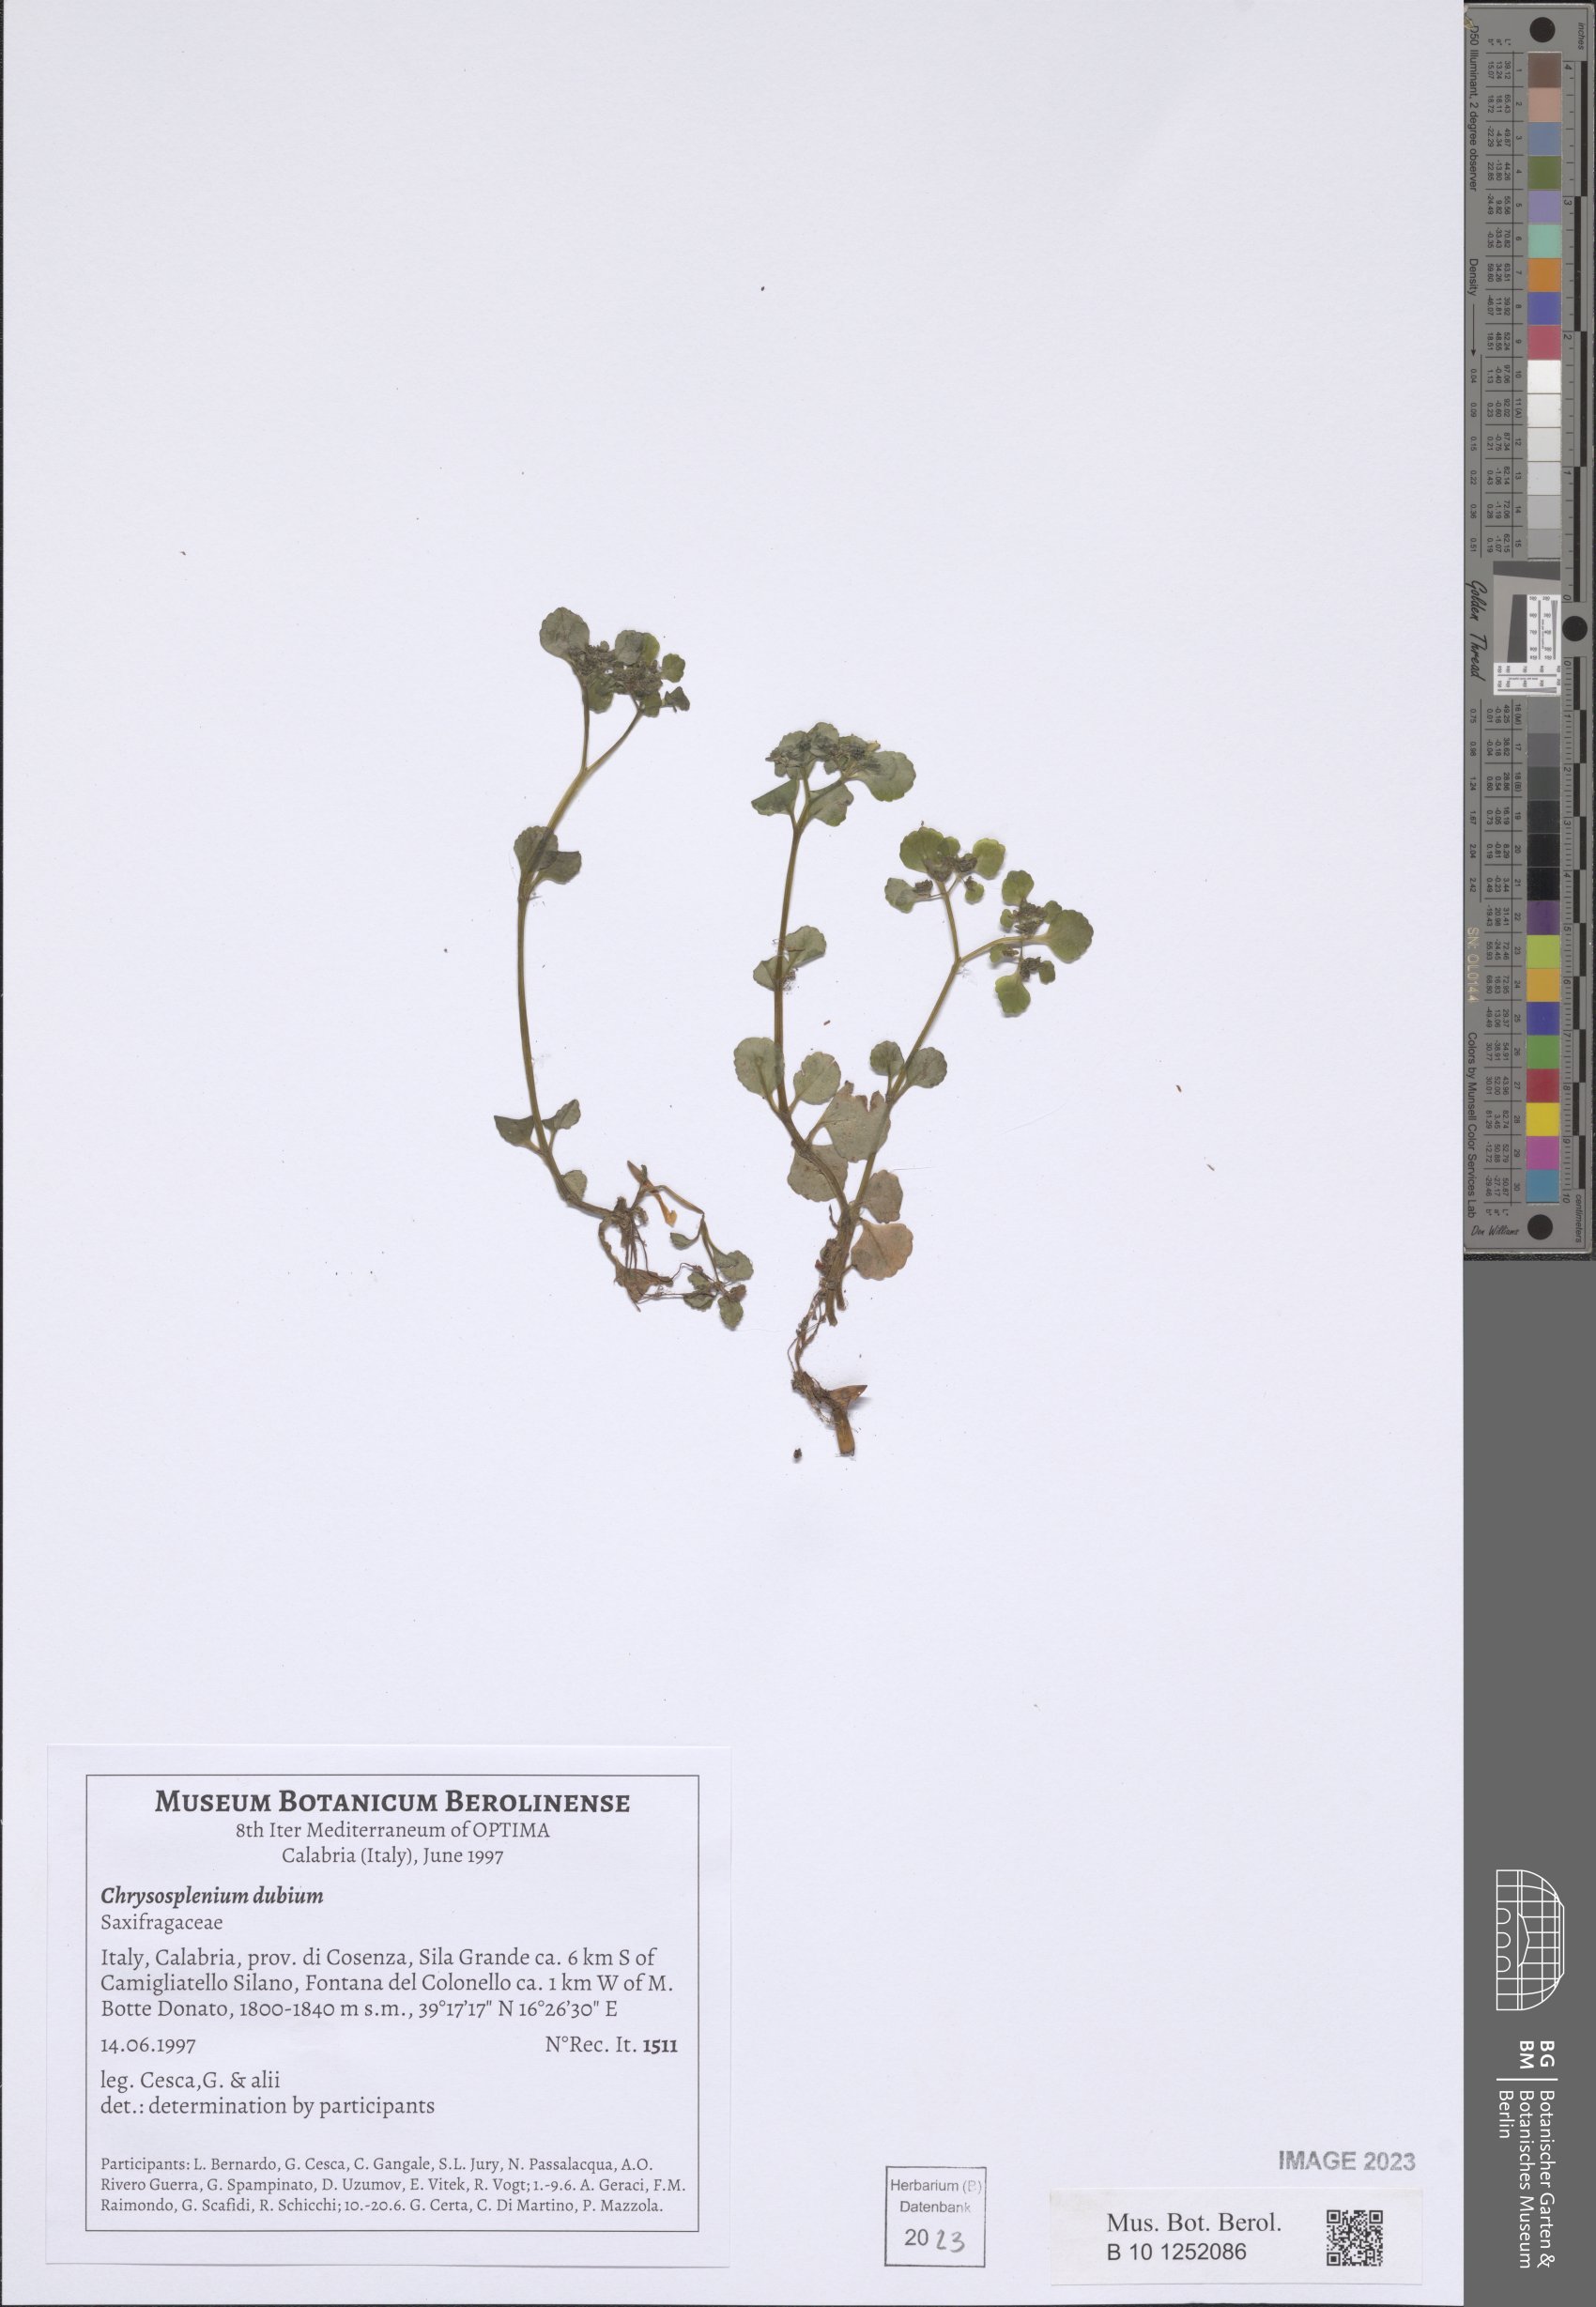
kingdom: Plantae
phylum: Tracheophyta
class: Magnoliopsida
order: Saxifragales
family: Saxifragaceae
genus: Chrysosplenium
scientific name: Chrysosplenium dubium
